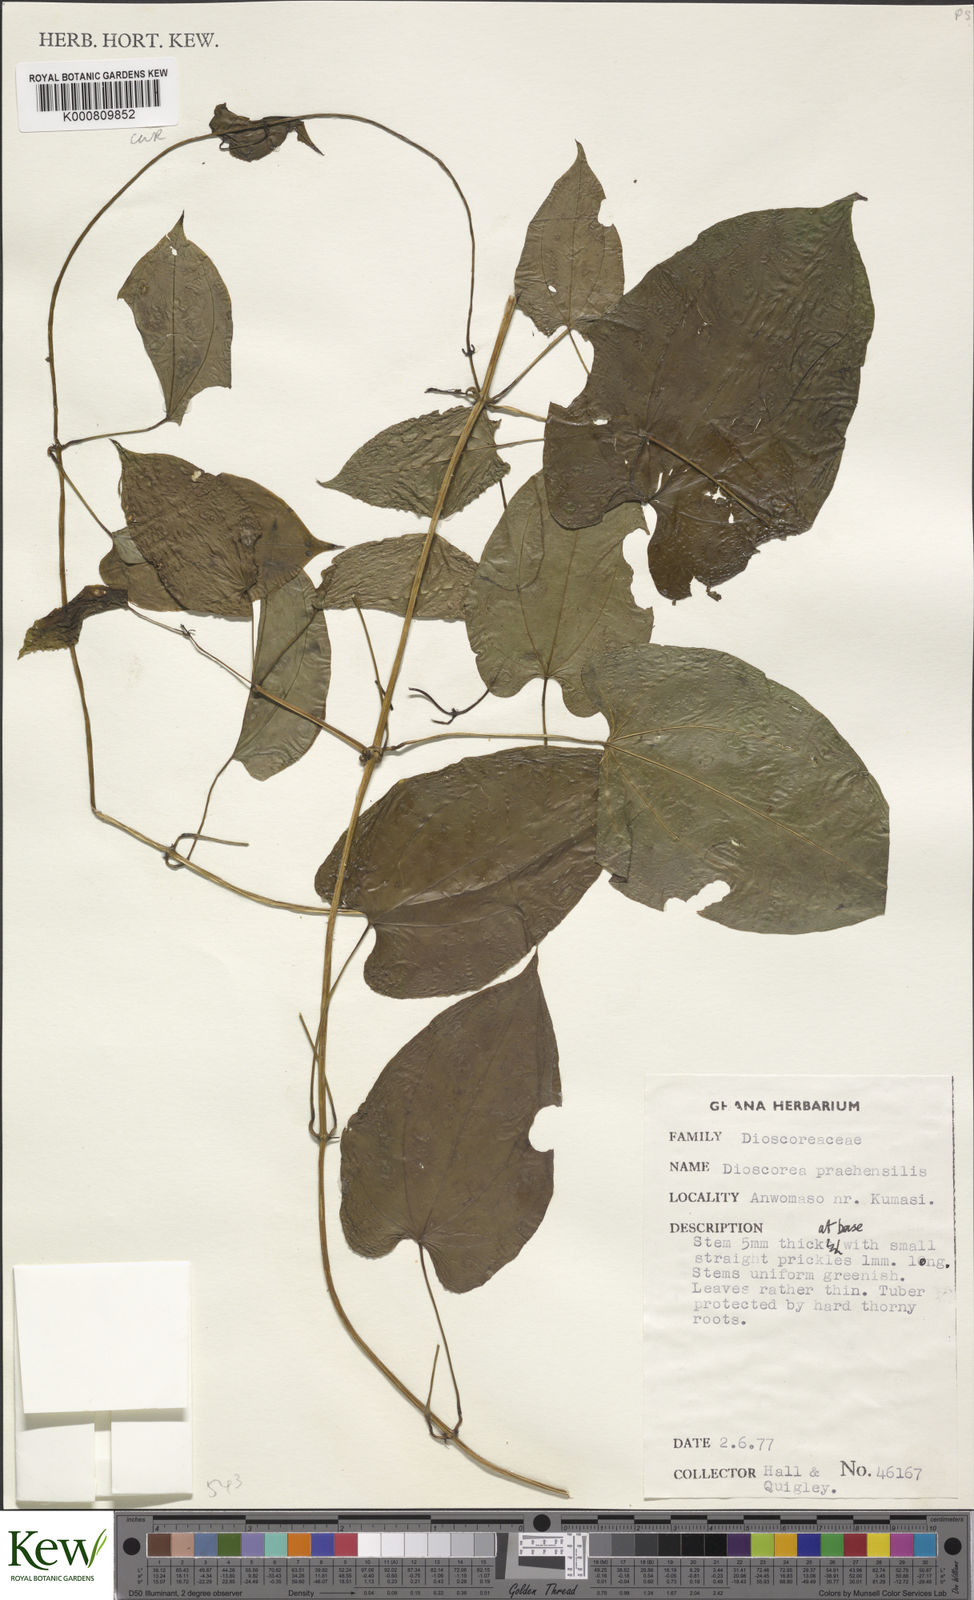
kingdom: Plantae
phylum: Tracheophyta
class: Liliopsida
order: Dioscoreales
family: Dioscoreaceae
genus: Dioscorea
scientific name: Dioscorea praehensilis
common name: Bush yam
